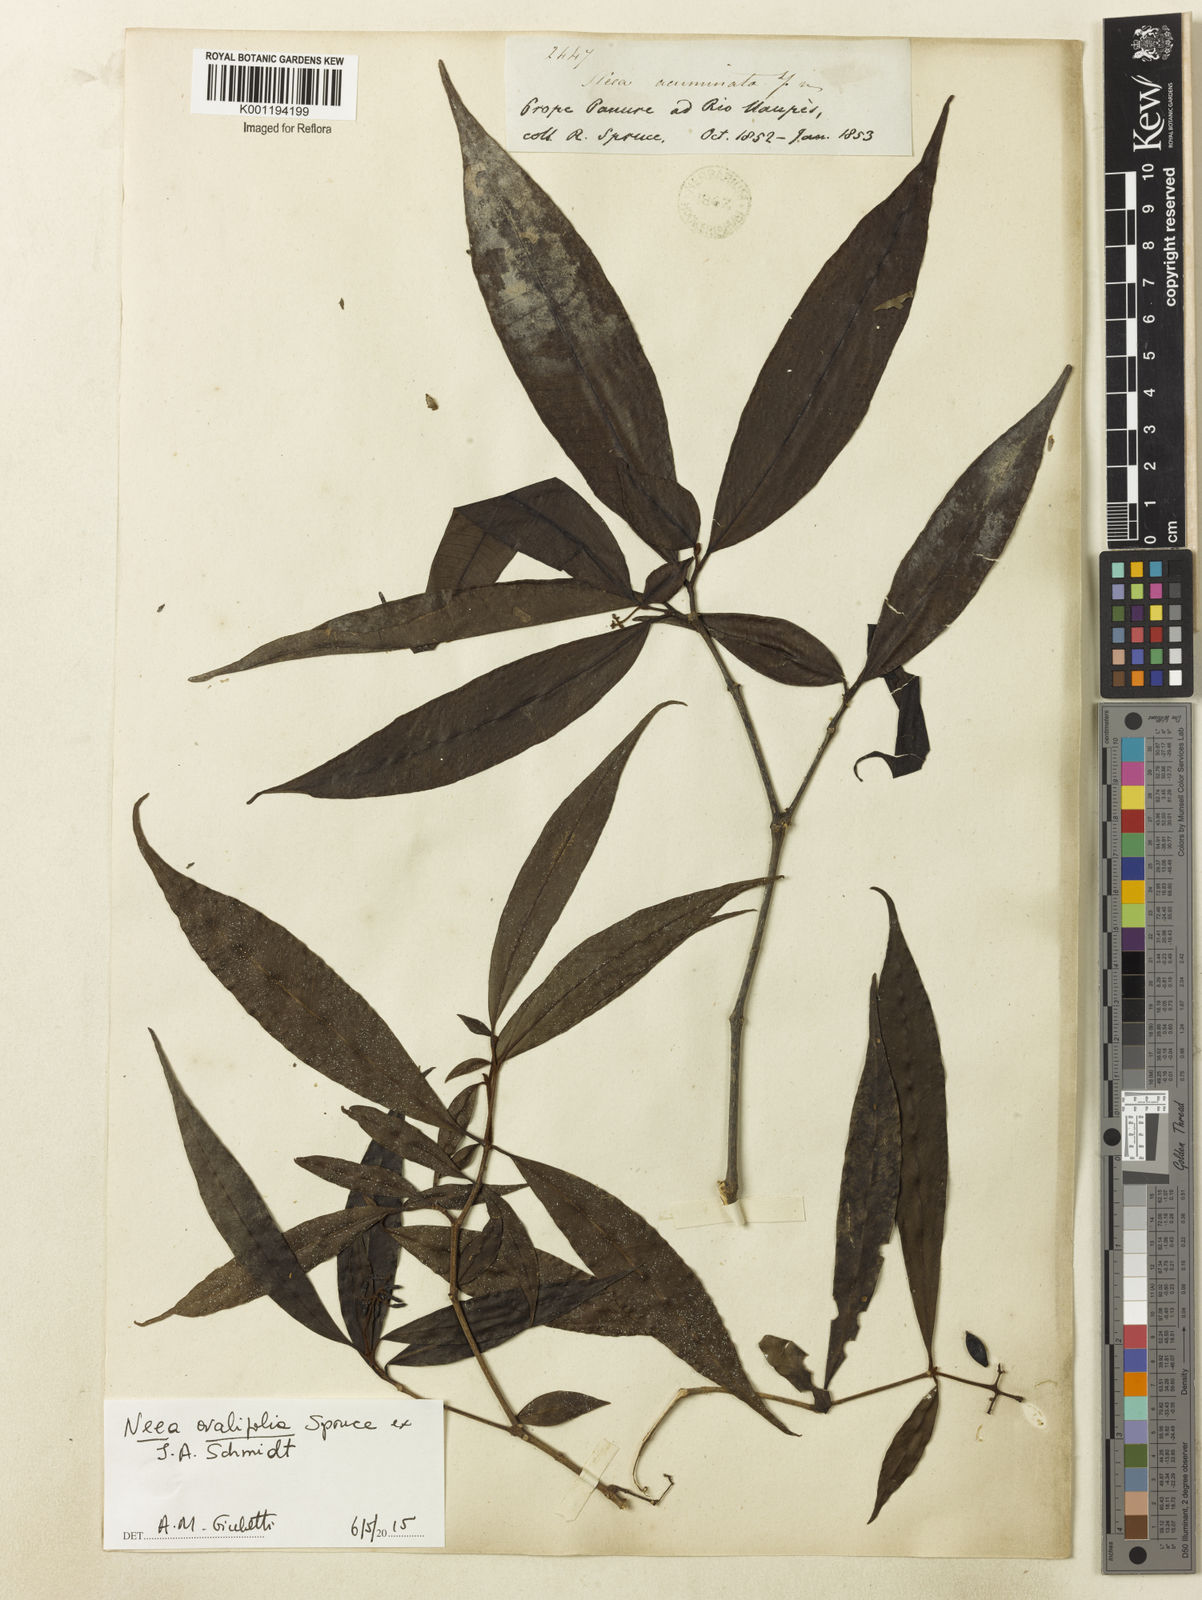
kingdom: Plantae
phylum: Tracheophyta
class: Magnoliopsida
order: Caryophyllales
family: Nyctaginaceae
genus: Neea
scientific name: Neea ovalifolia
